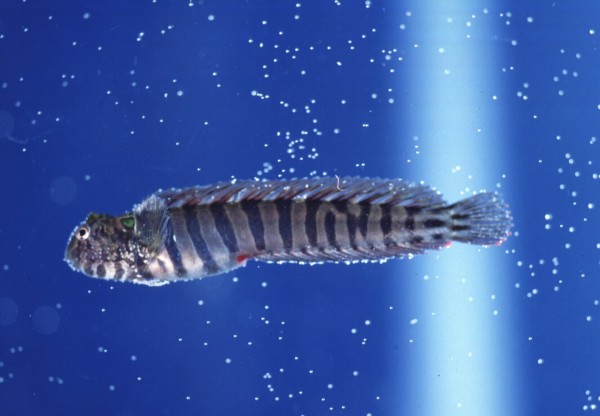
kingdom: Animalia
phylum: Chordata
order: Perciformes
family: Blenniidae
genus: Omobranchus
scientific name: Omobranchus banditus
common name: Bandit blenny
